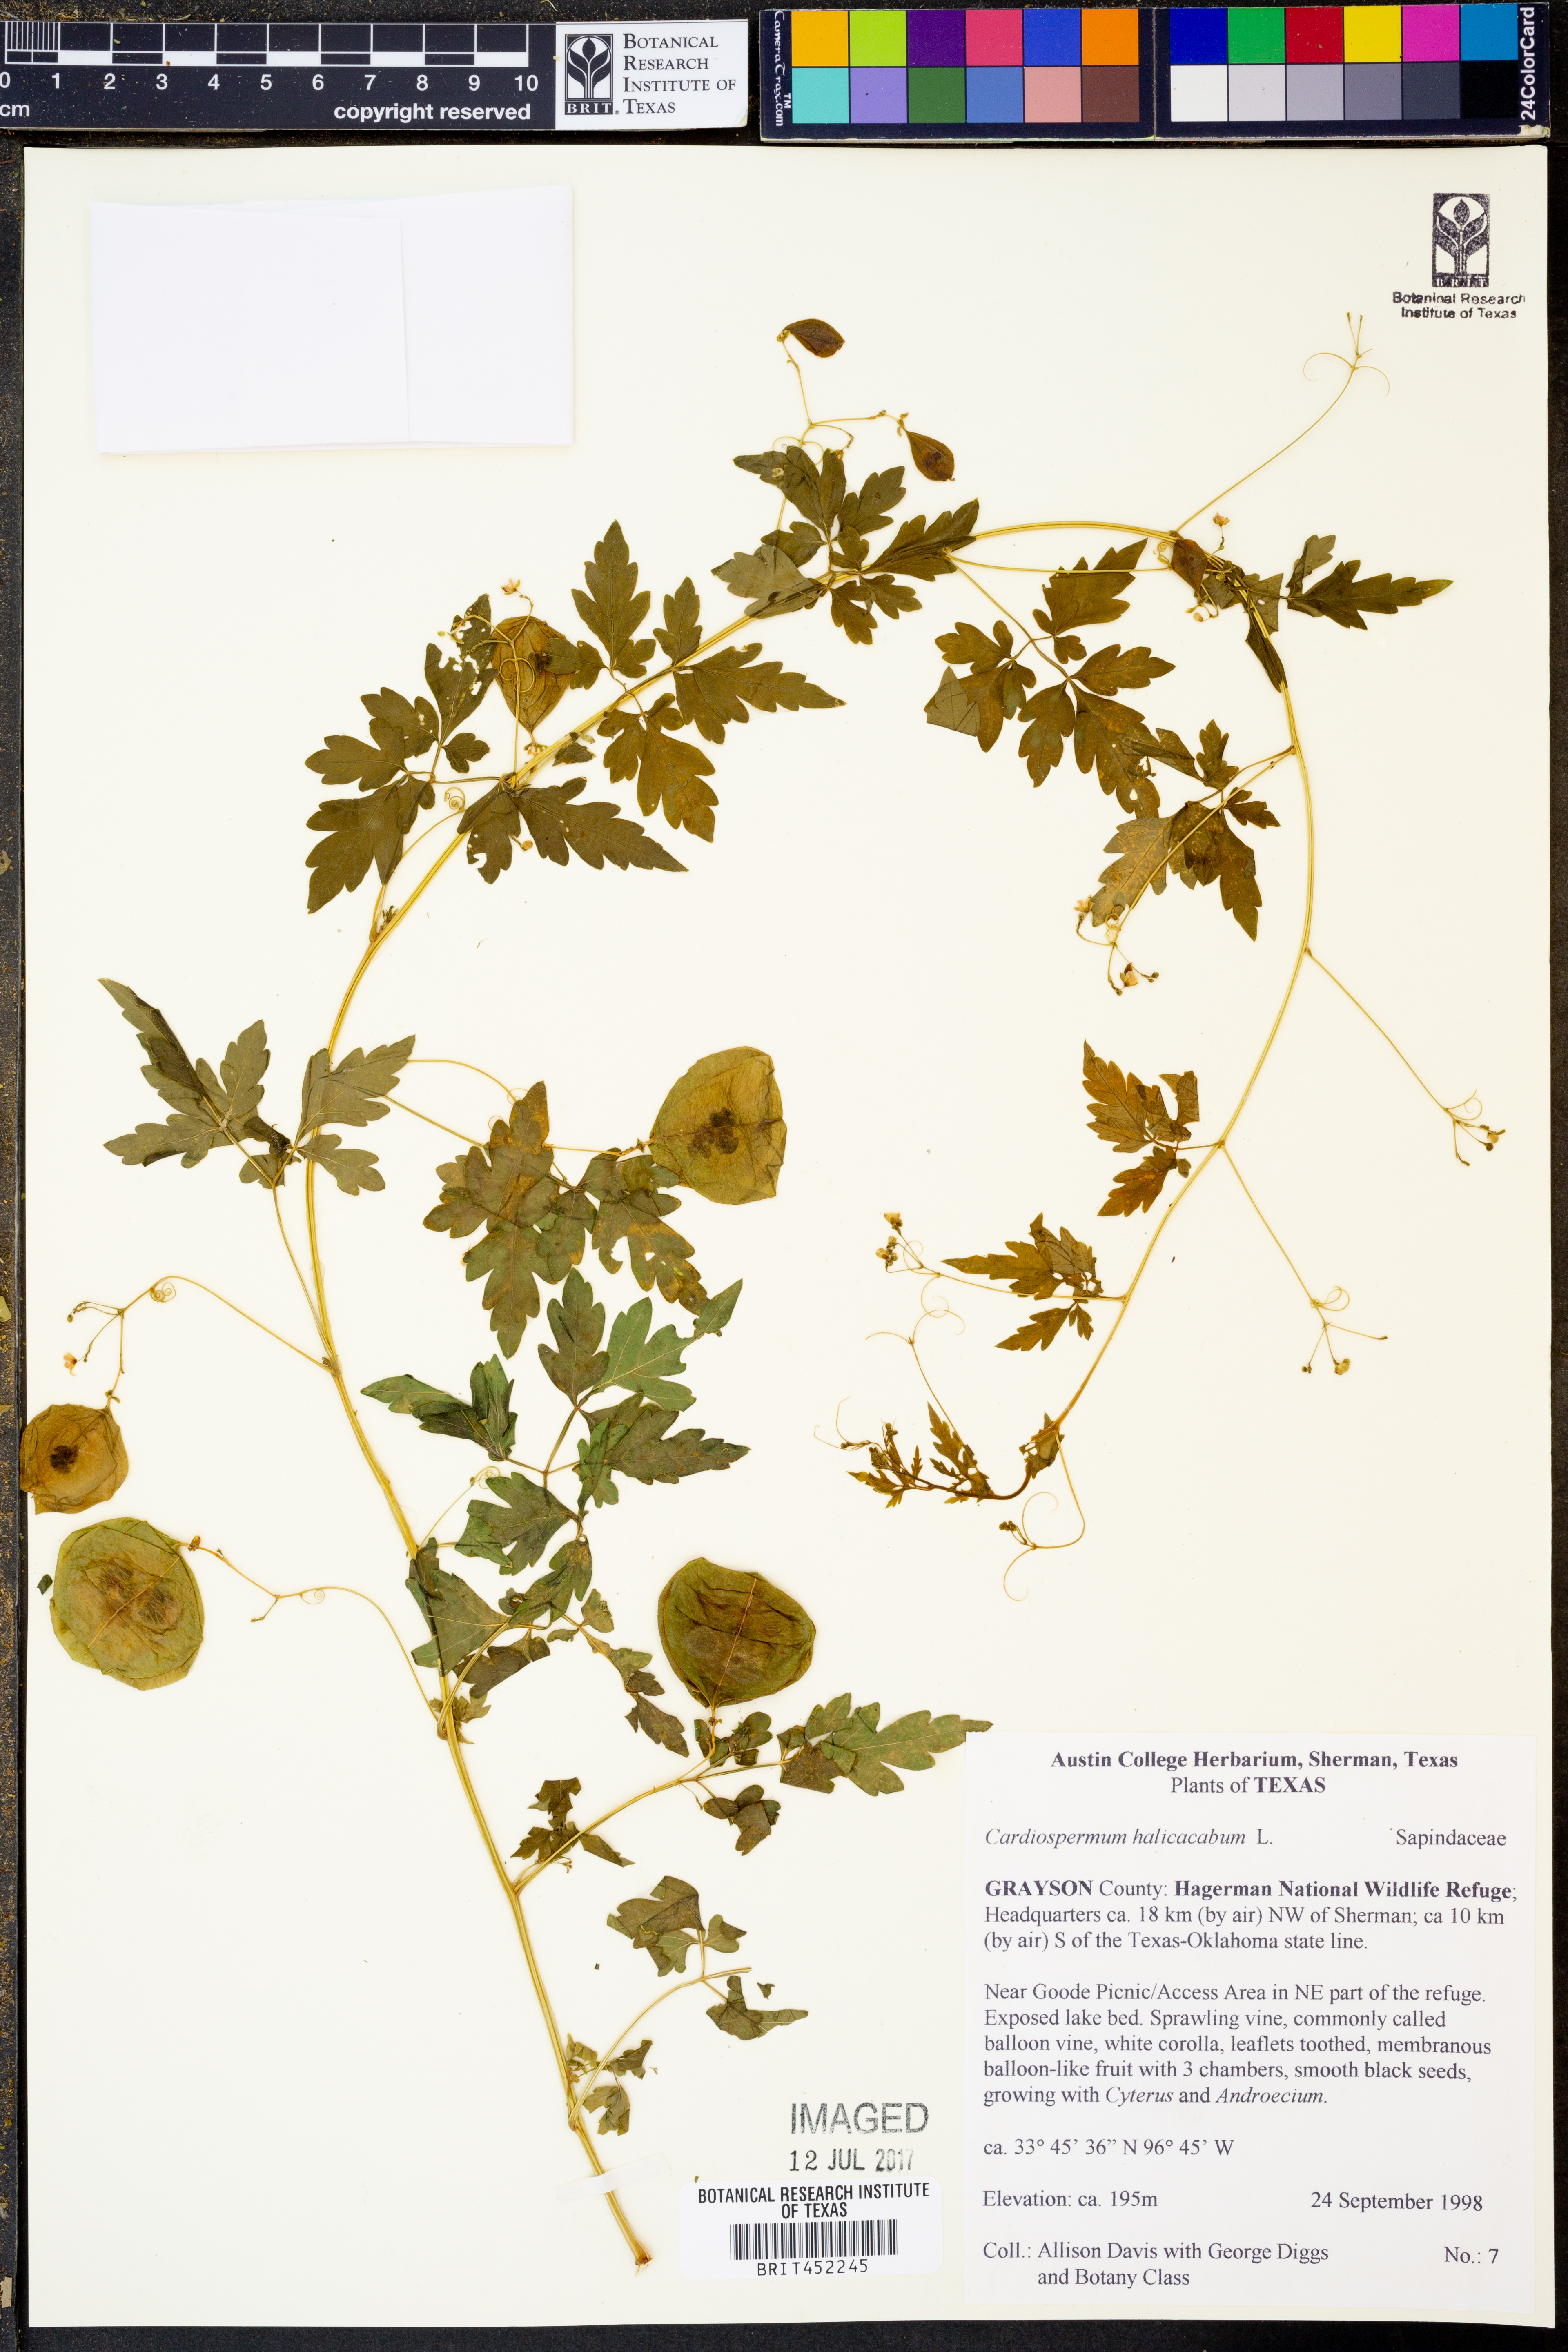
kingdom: Plantae
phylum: Tracheophyta
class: Magnoliopsida
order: Sapindales
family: Sapindaceae
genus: Cardiospermum
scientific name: Cardiospermum halicacabum
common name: Balloon vine
